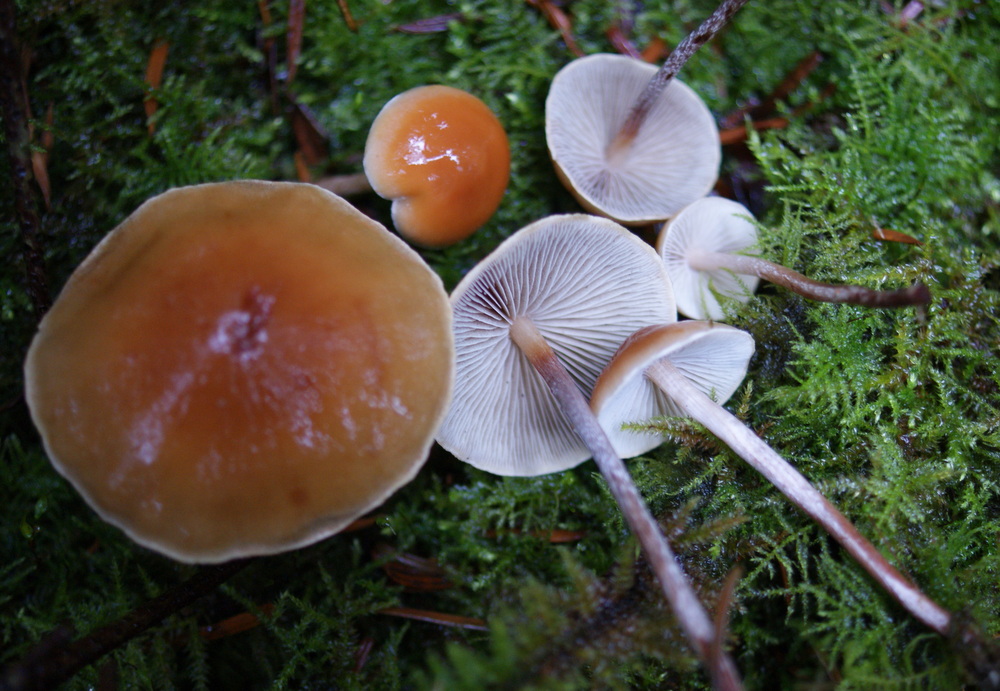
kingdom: Fungi
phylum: Basidiomycota
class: Agaricomycetes
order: Agaricales
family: Strophariaceae
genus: Hypholoma
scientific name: Hypholoma marginatum
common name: enlig svovlhat
